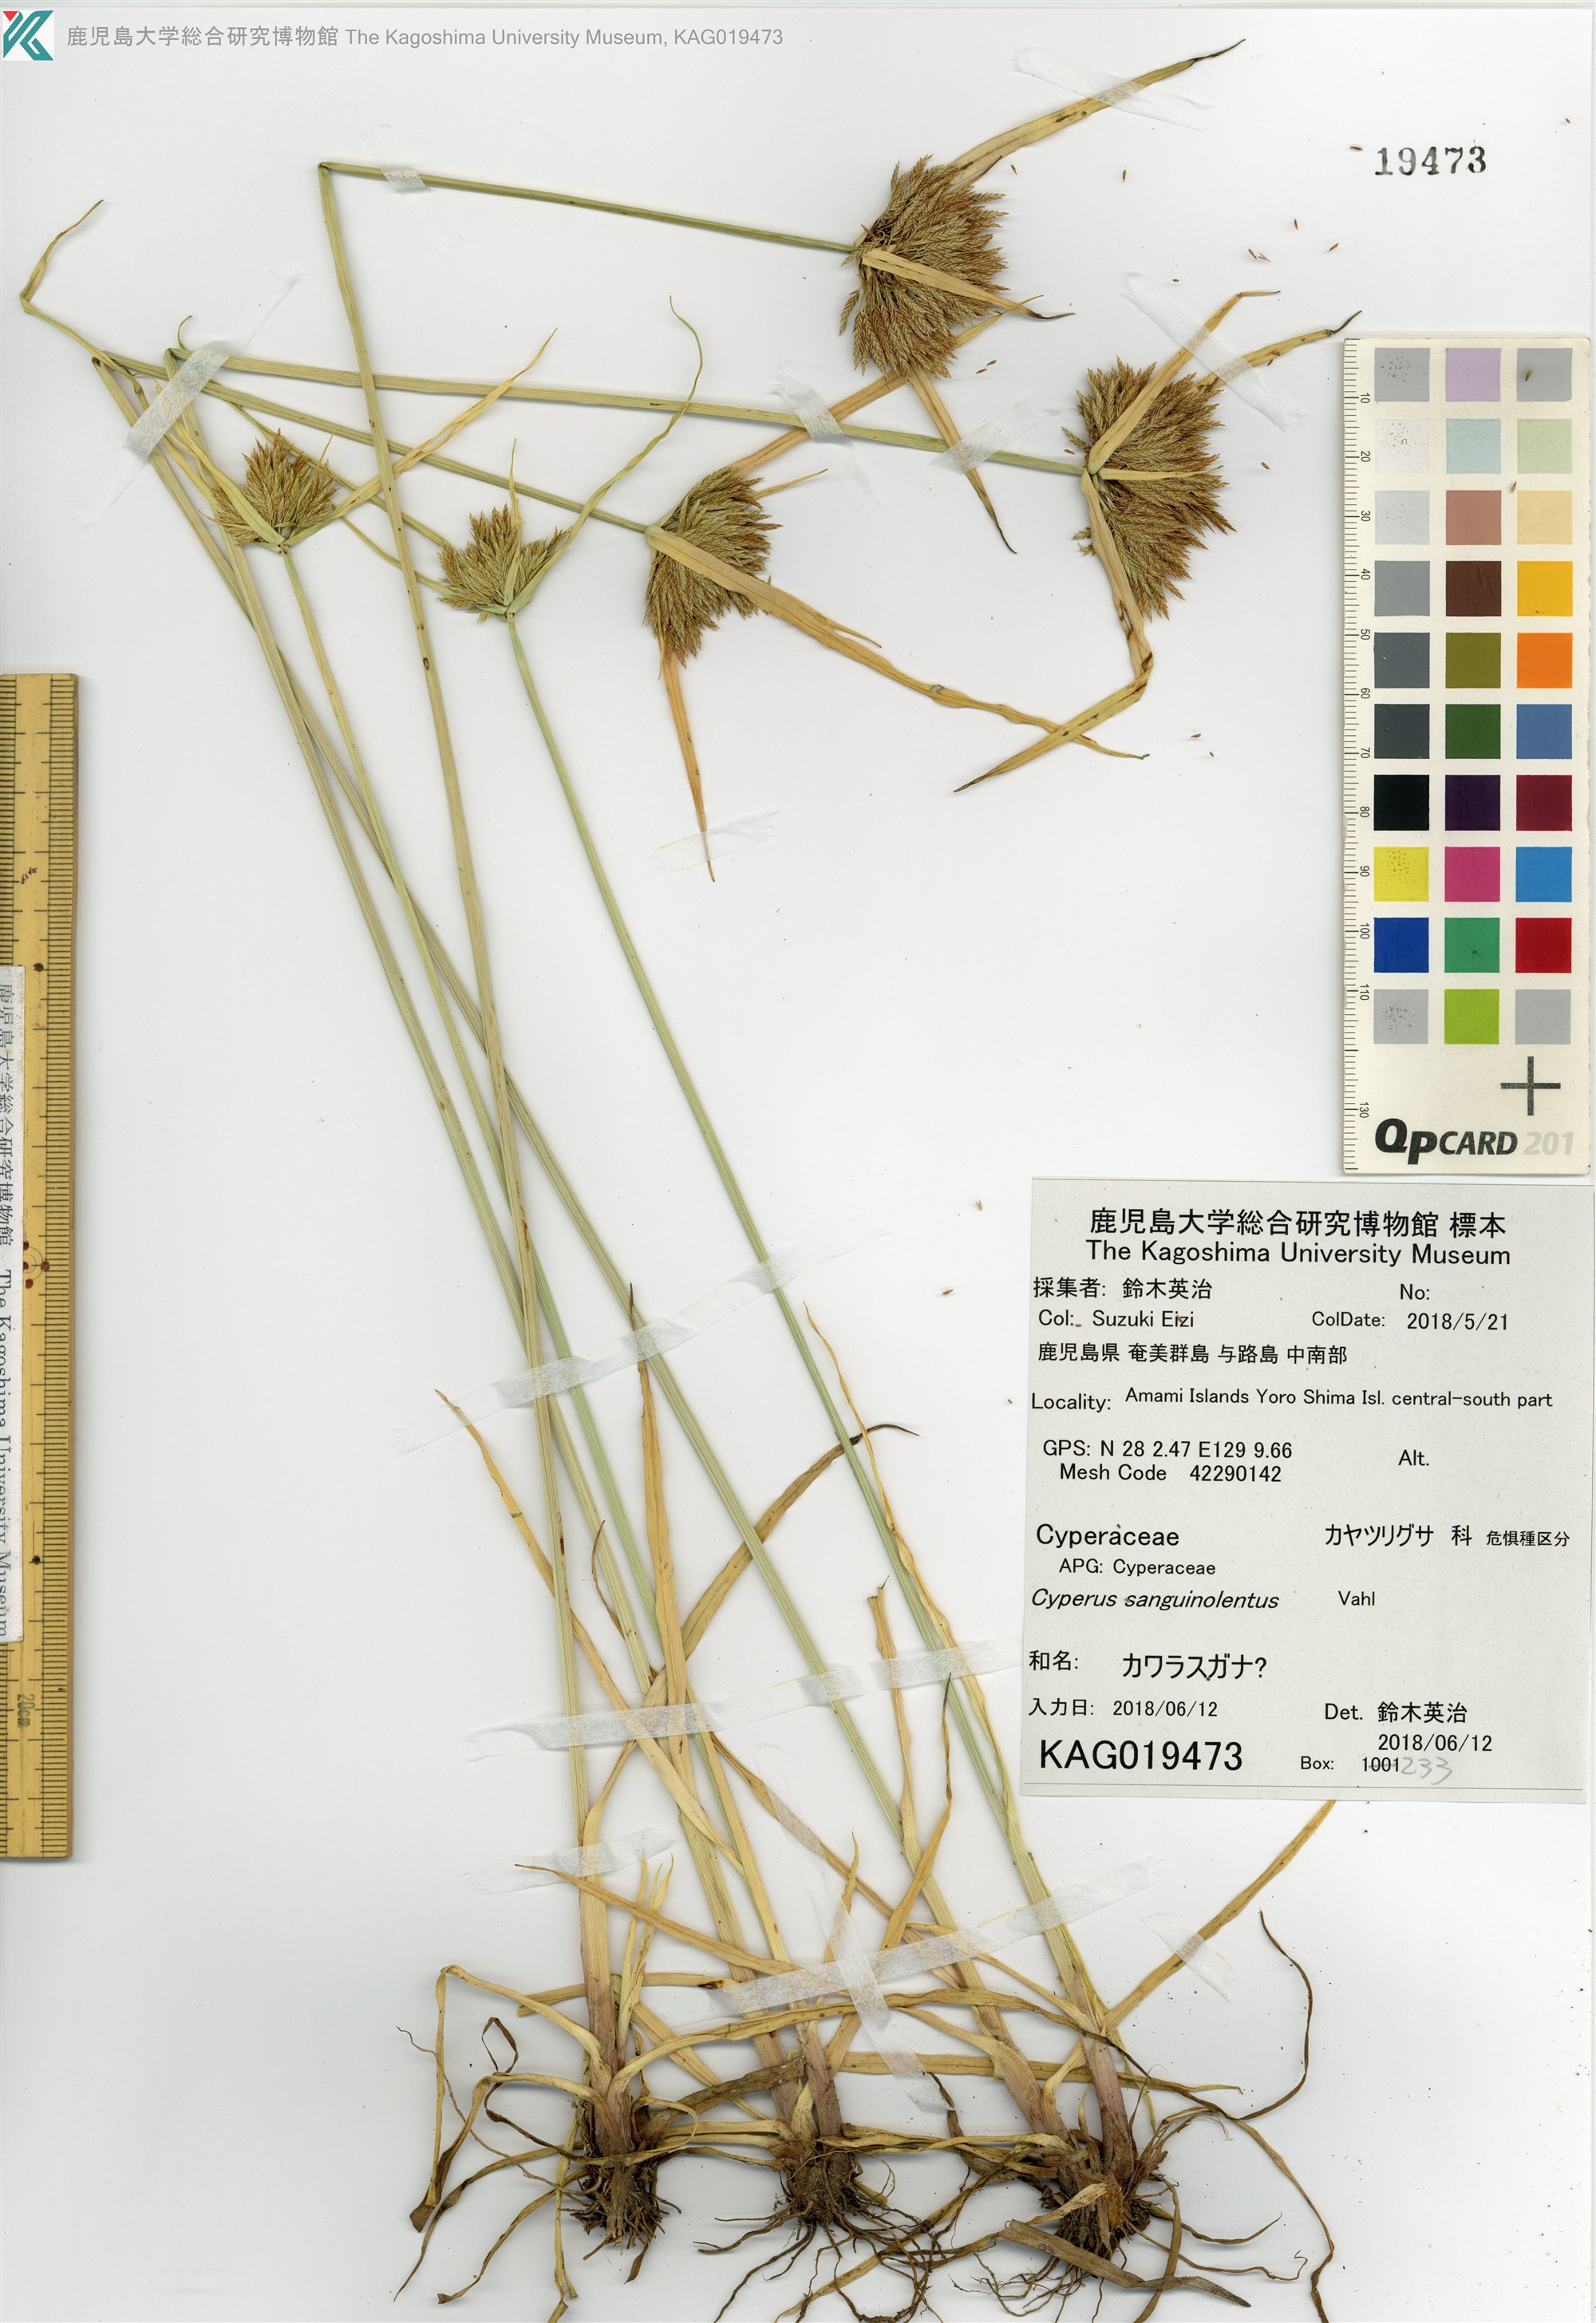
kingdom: Plantae
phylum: Tracheophyta
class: Liliopsida
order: Poales
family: Cyperaceae
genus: Cyperus
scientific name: Cyperus polystachyos
